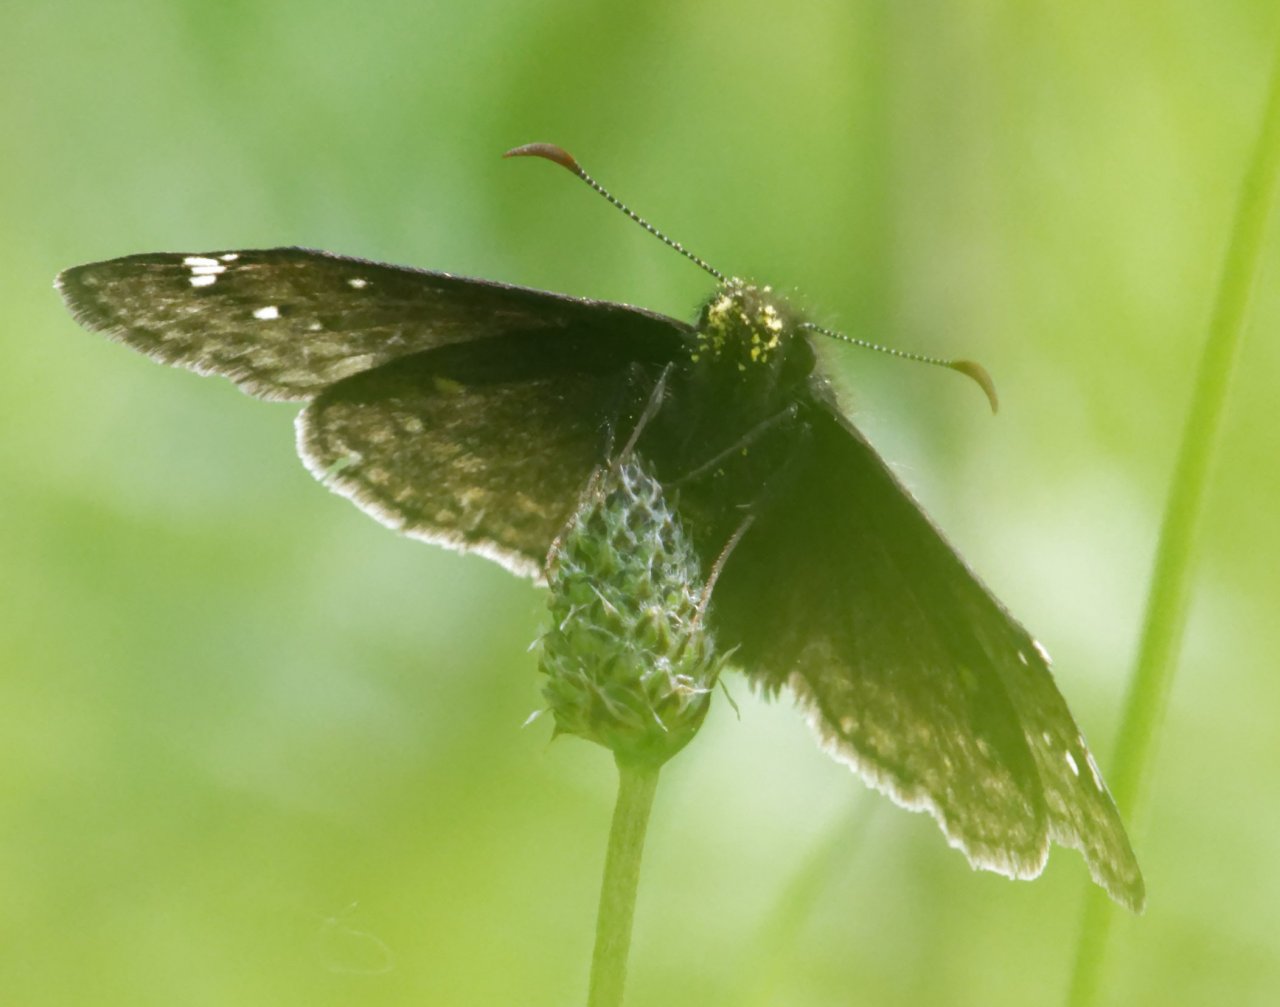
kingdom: Animalia
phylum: Arthropoda
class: Insecta
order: Lepidoptera
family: Hesperiidae
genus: Gesta
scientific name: Gesta
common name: Juvenal's Duskywing
